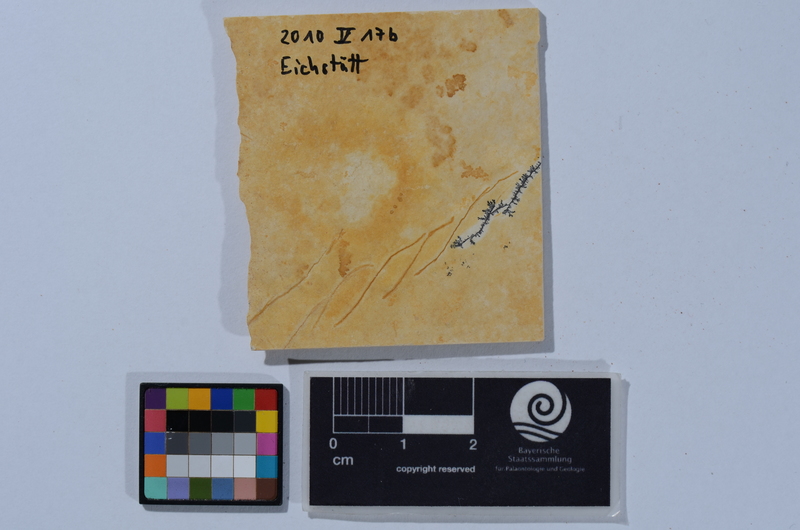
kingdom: Animalia
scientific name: Animalia
